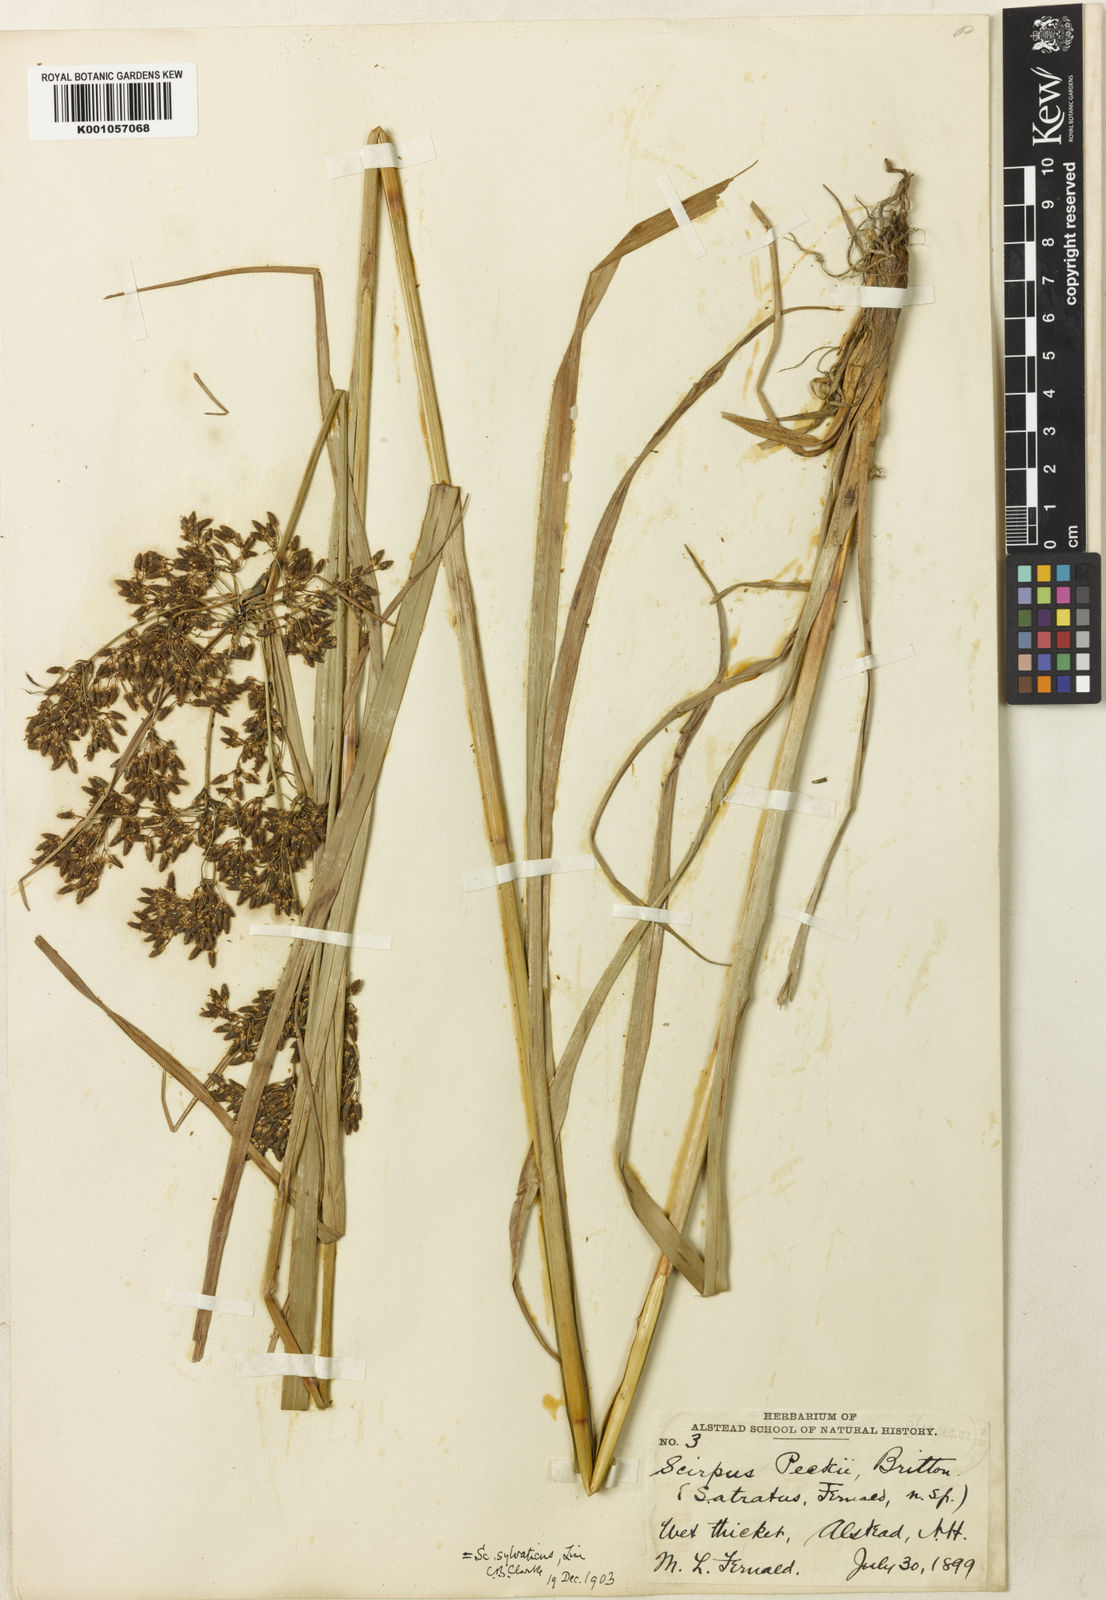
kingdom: Plantae
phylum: Tracheophyta
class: Liliopsida
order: Poales
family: Cyperaceae
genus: Scirpus
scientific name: Scirpus sylvaticus
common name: Wood club-rush
